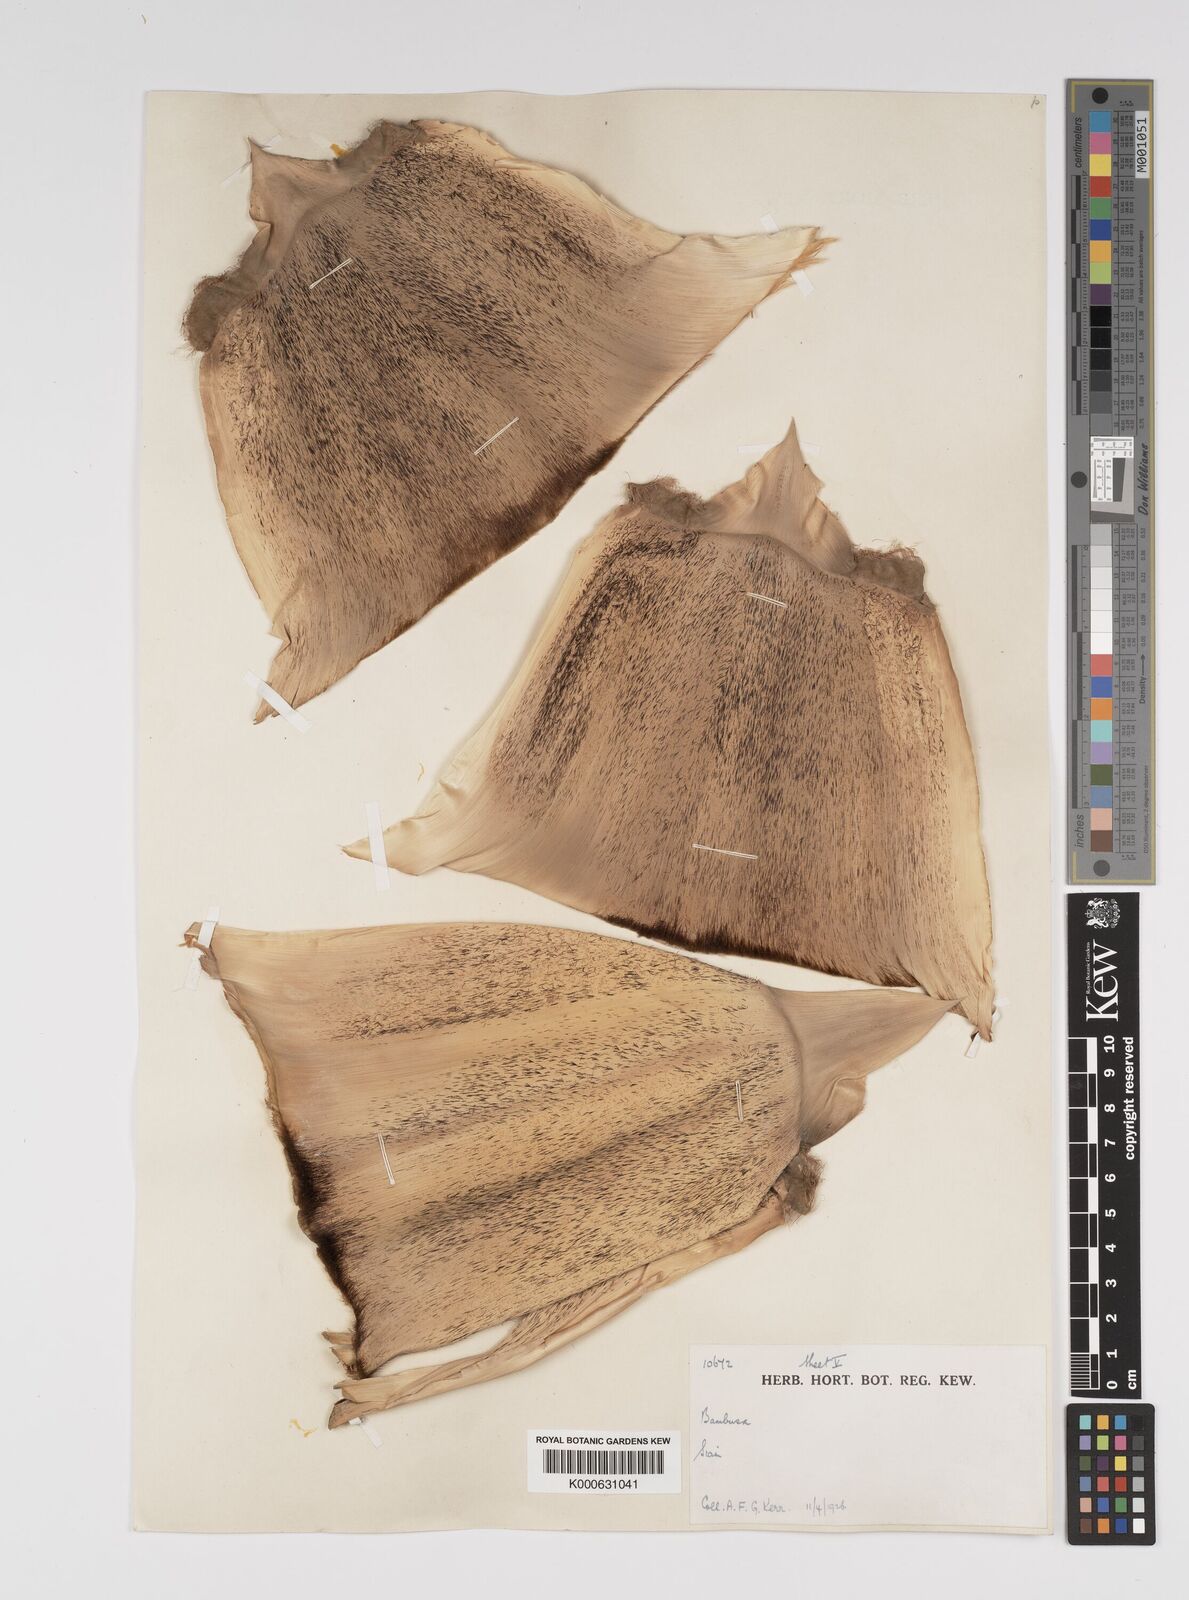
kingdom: Plantae
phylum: Tracheophyta
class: Liliopsida
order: Poales
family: Poaceae
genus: Bambusa
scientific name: Bambusa
